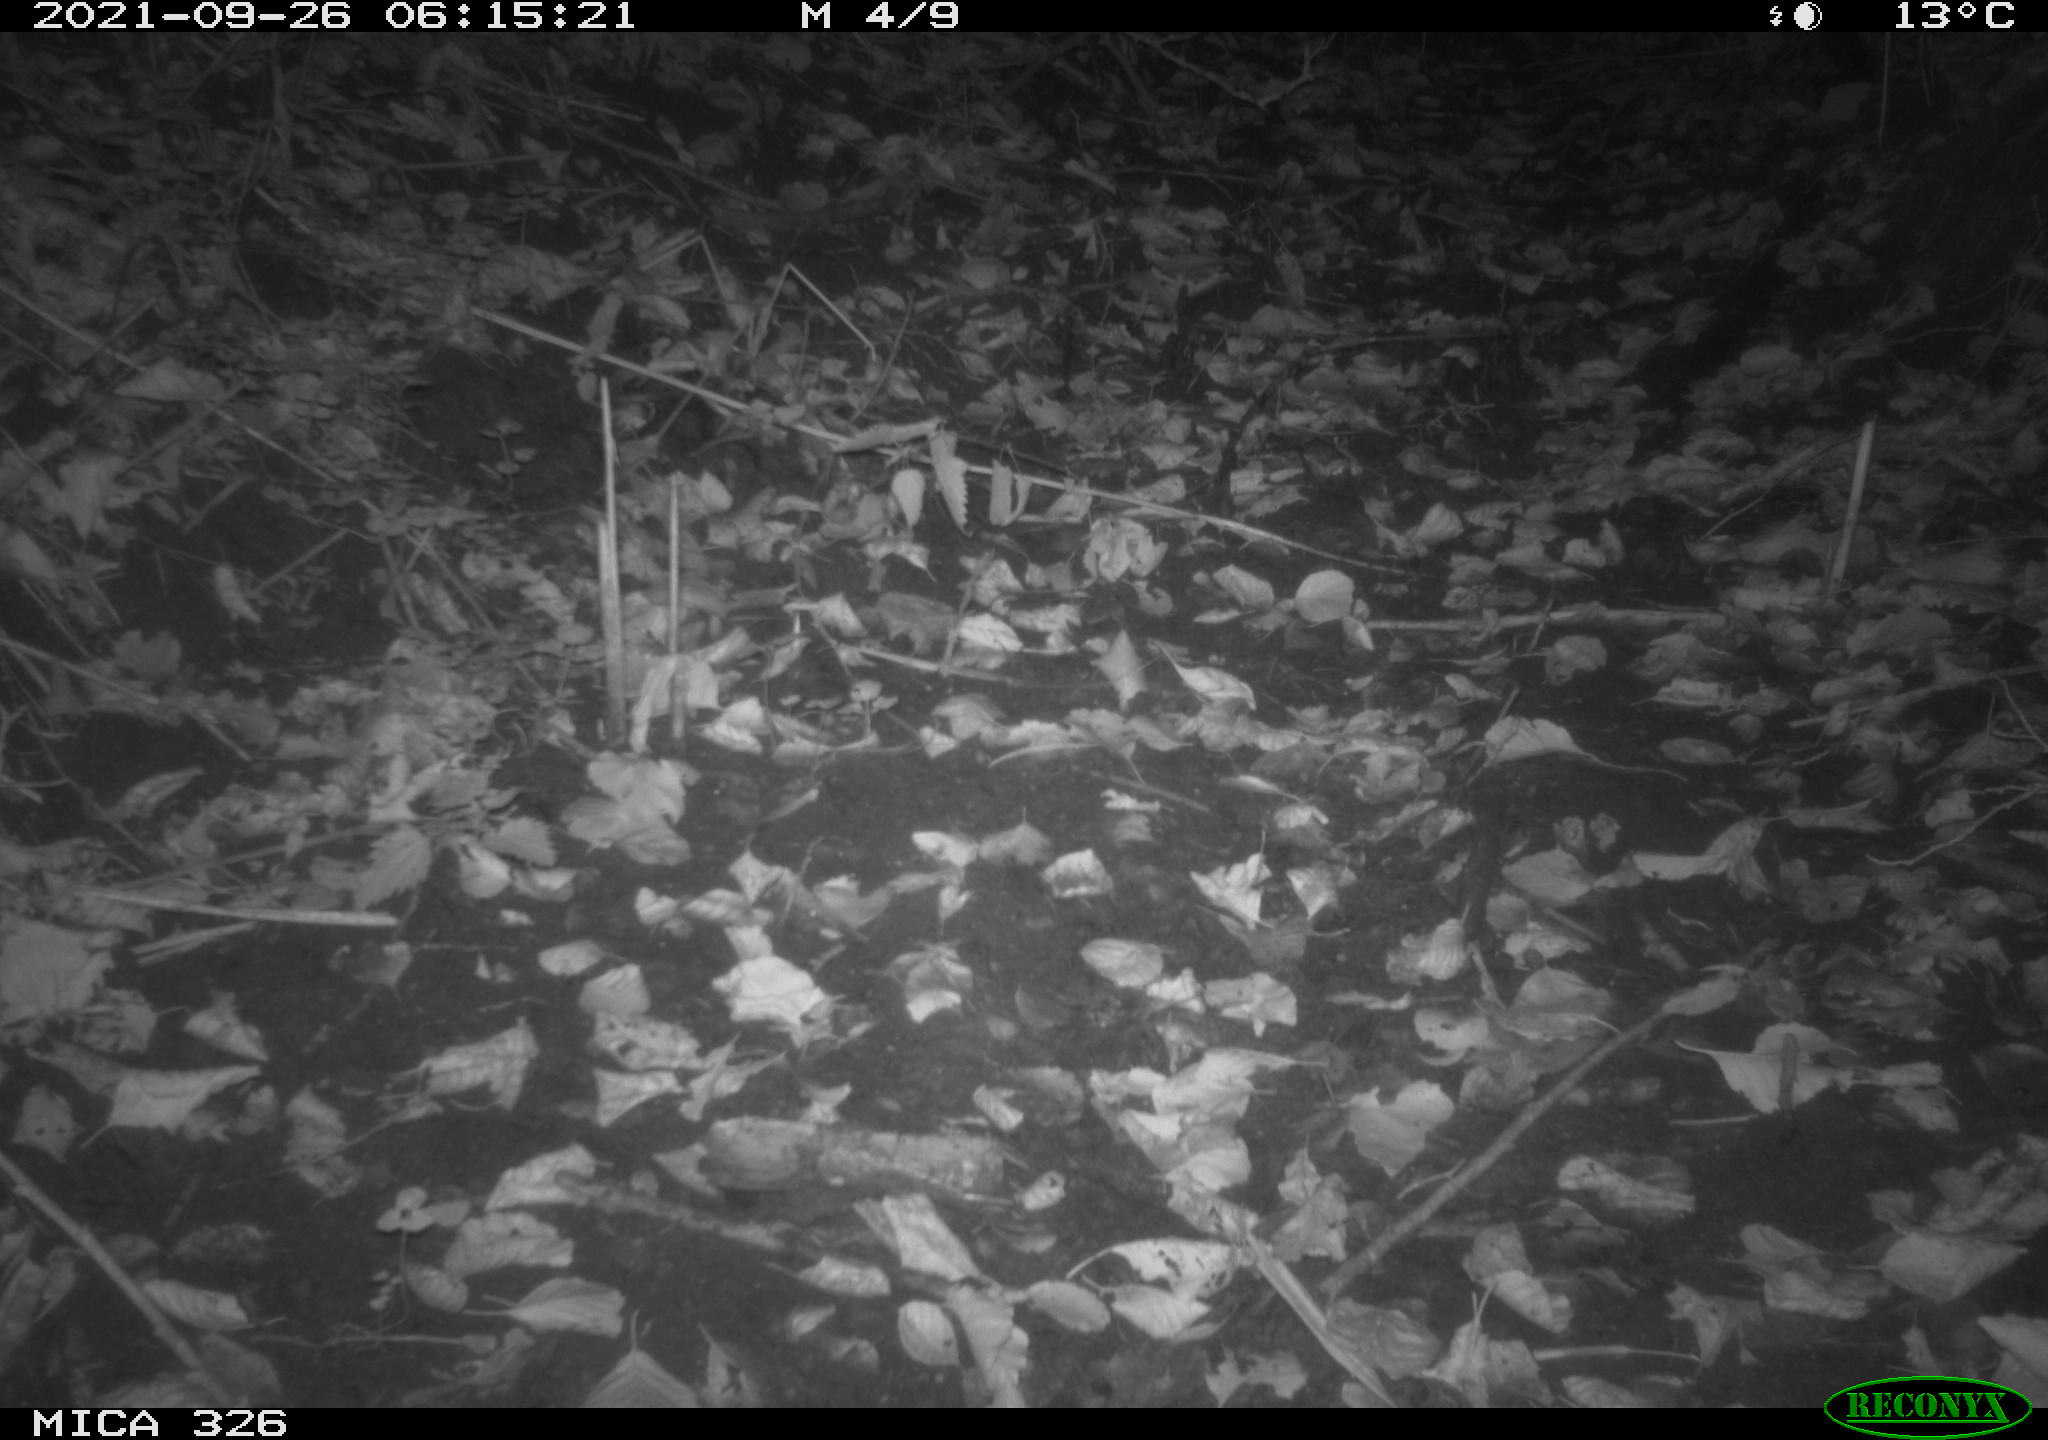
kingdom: Animalia
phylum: Chordata
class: Mammalia
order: Rodentia
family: Muridae
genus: Rattus
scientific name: Rattus norvegicus
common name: Brown rat
